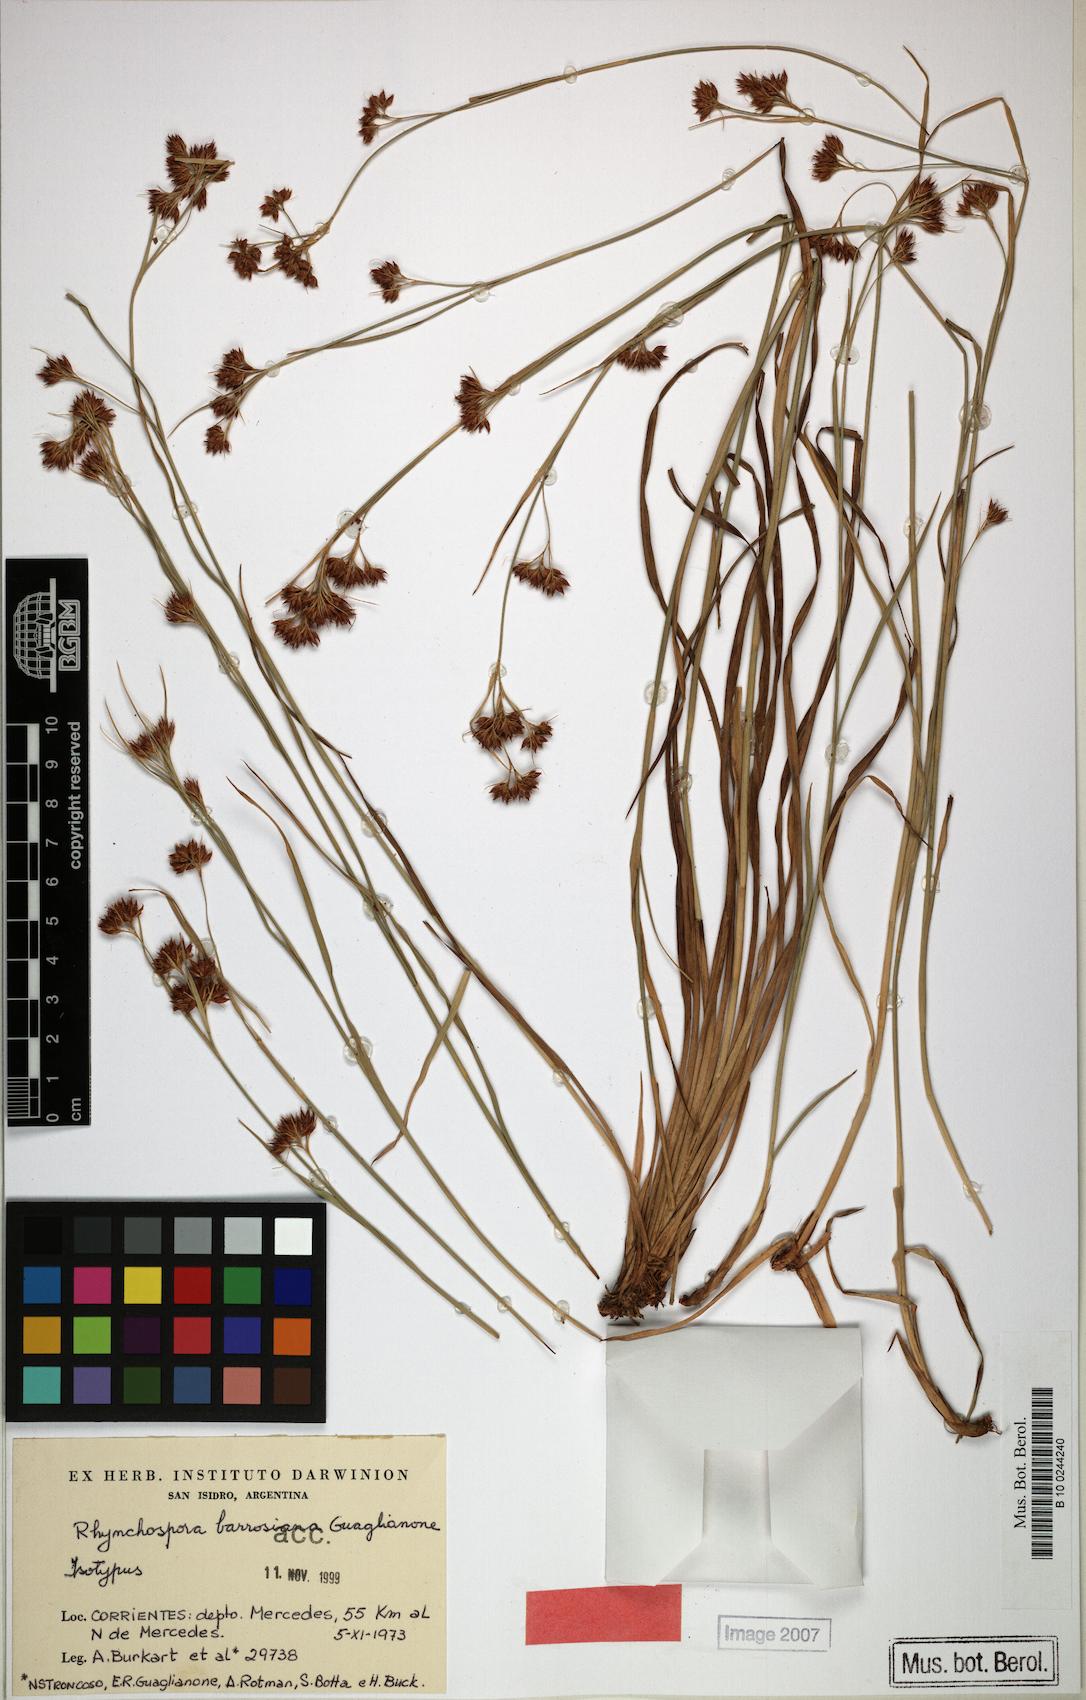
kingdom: Plantae
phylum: Tracheophyta
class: Liliopsida
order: Poales
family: Cyperaceae
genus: Rhynchospora
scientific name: Rhynchospora barrosiana
